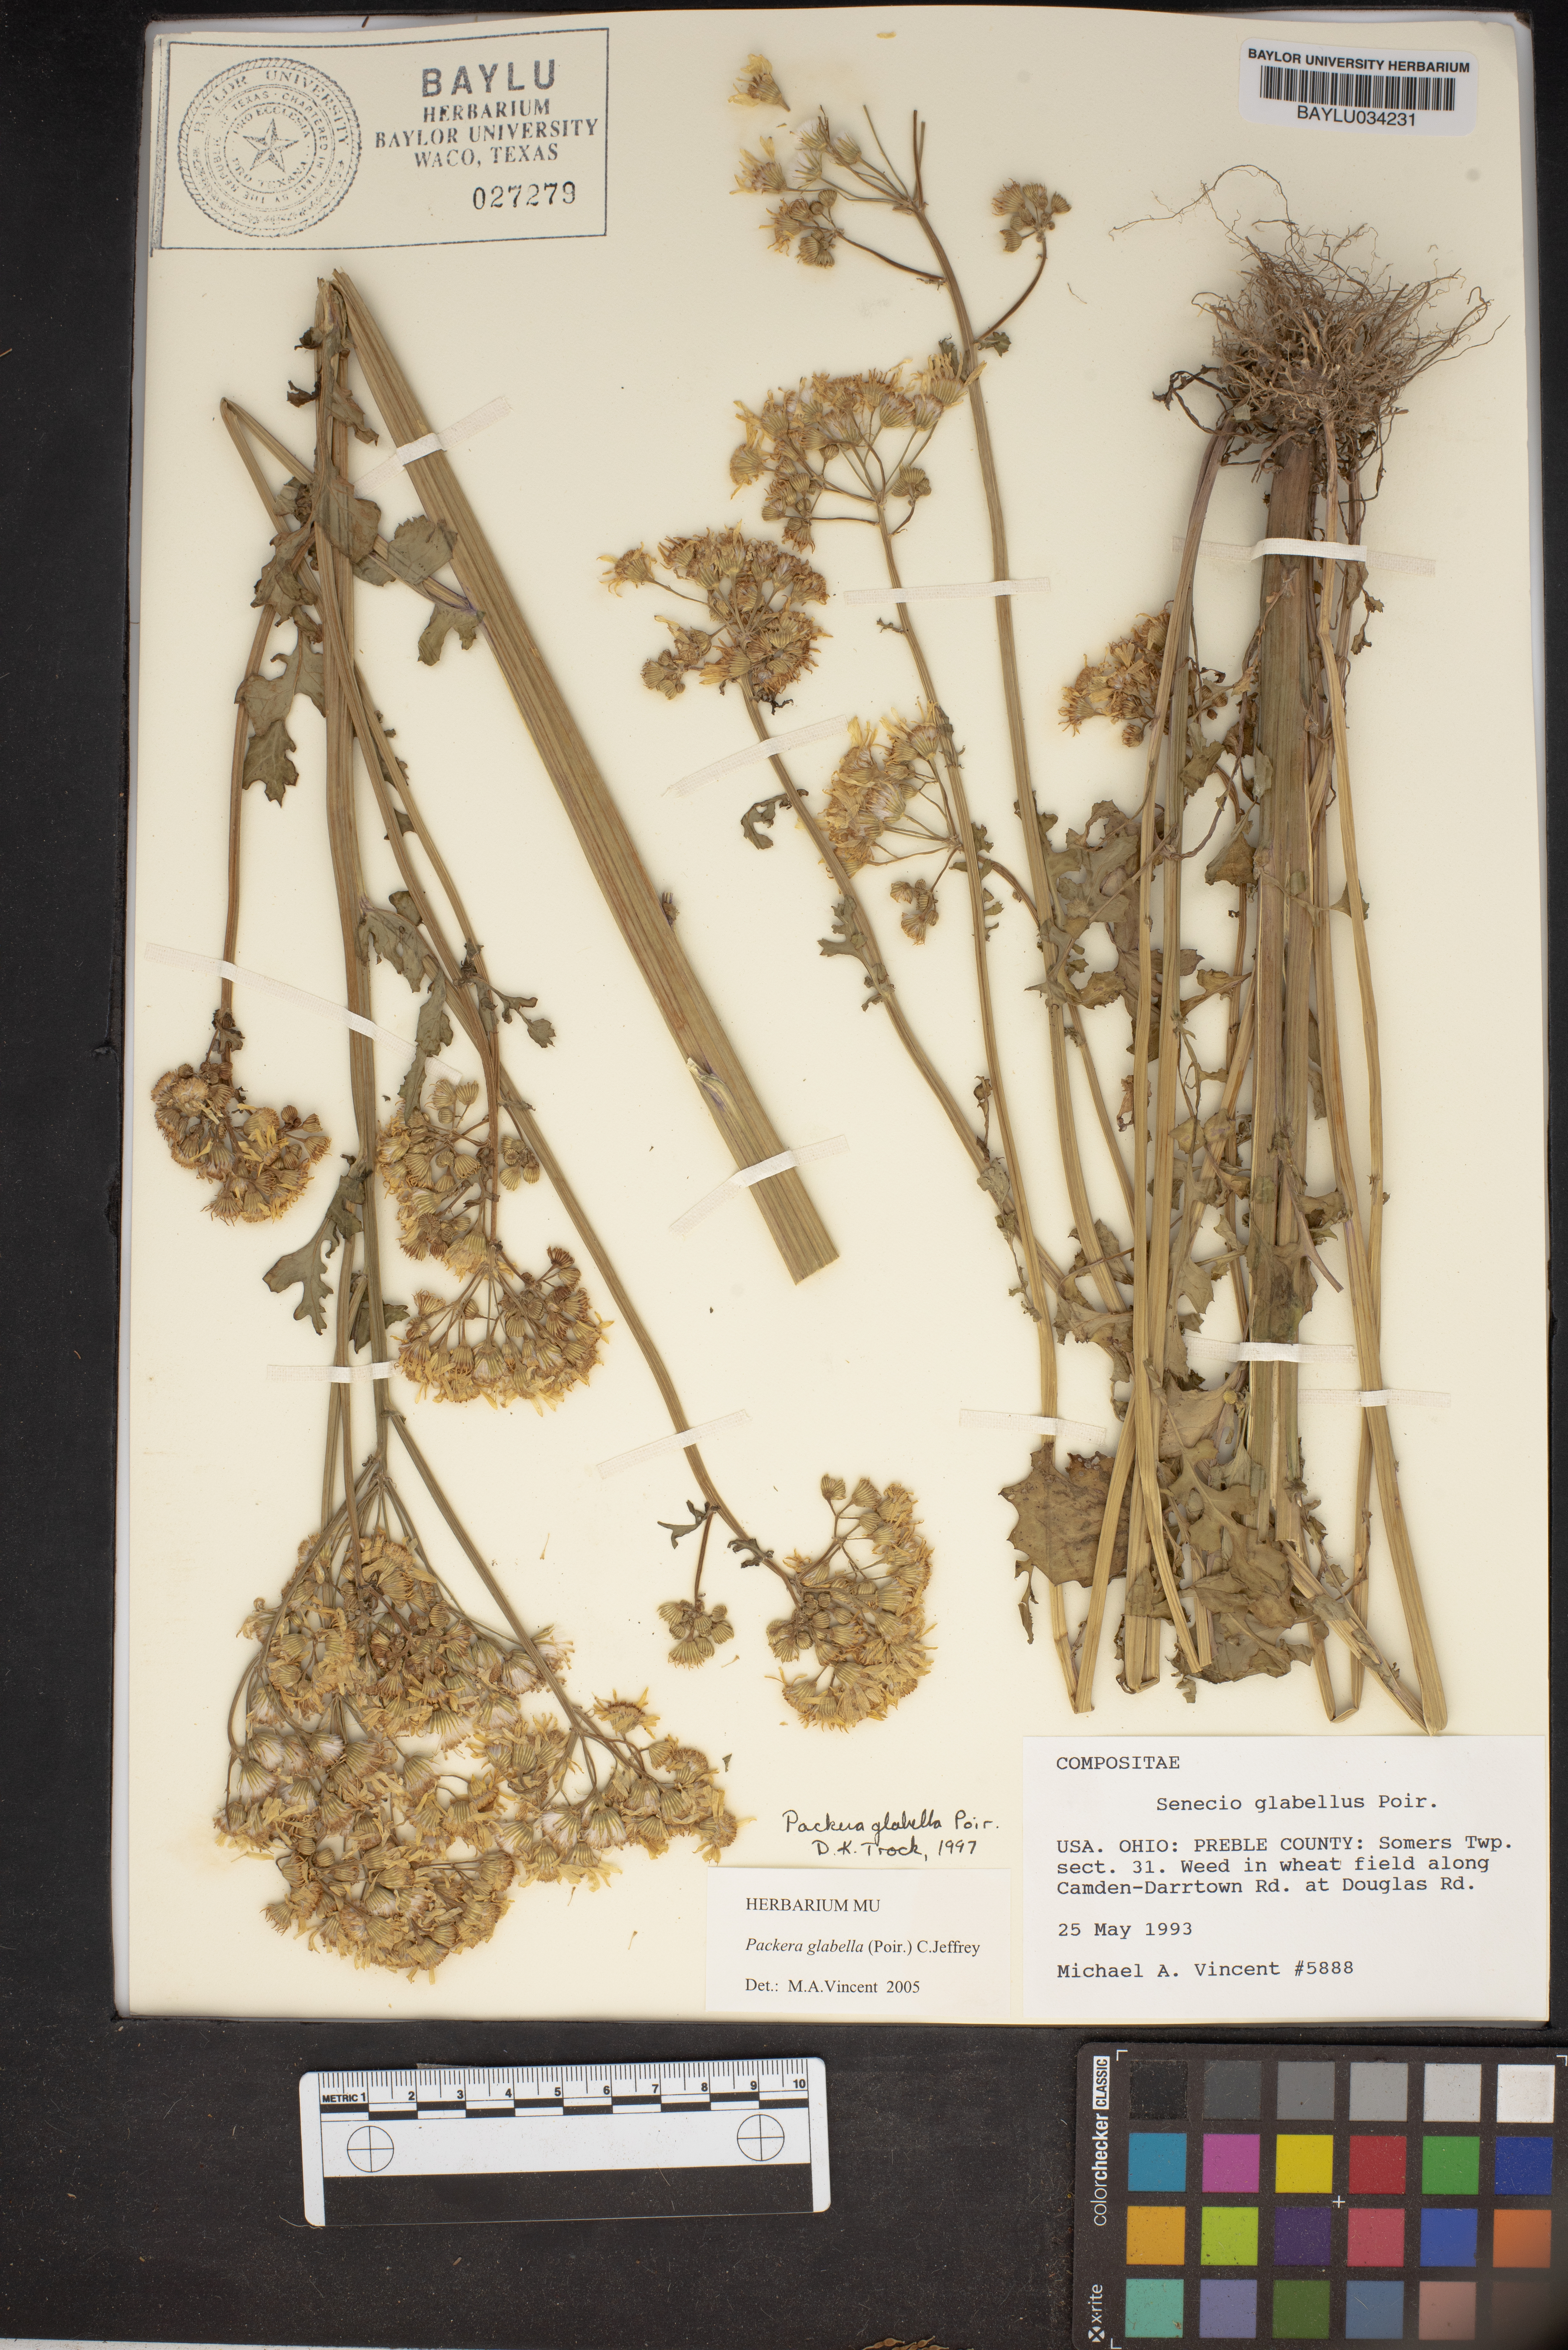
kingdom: Plantae
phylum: Tracheophyta
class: Magnoliopsida
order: Asterales
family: Asteraceae
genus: Tephroseris
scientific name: Tephroseris praticola
